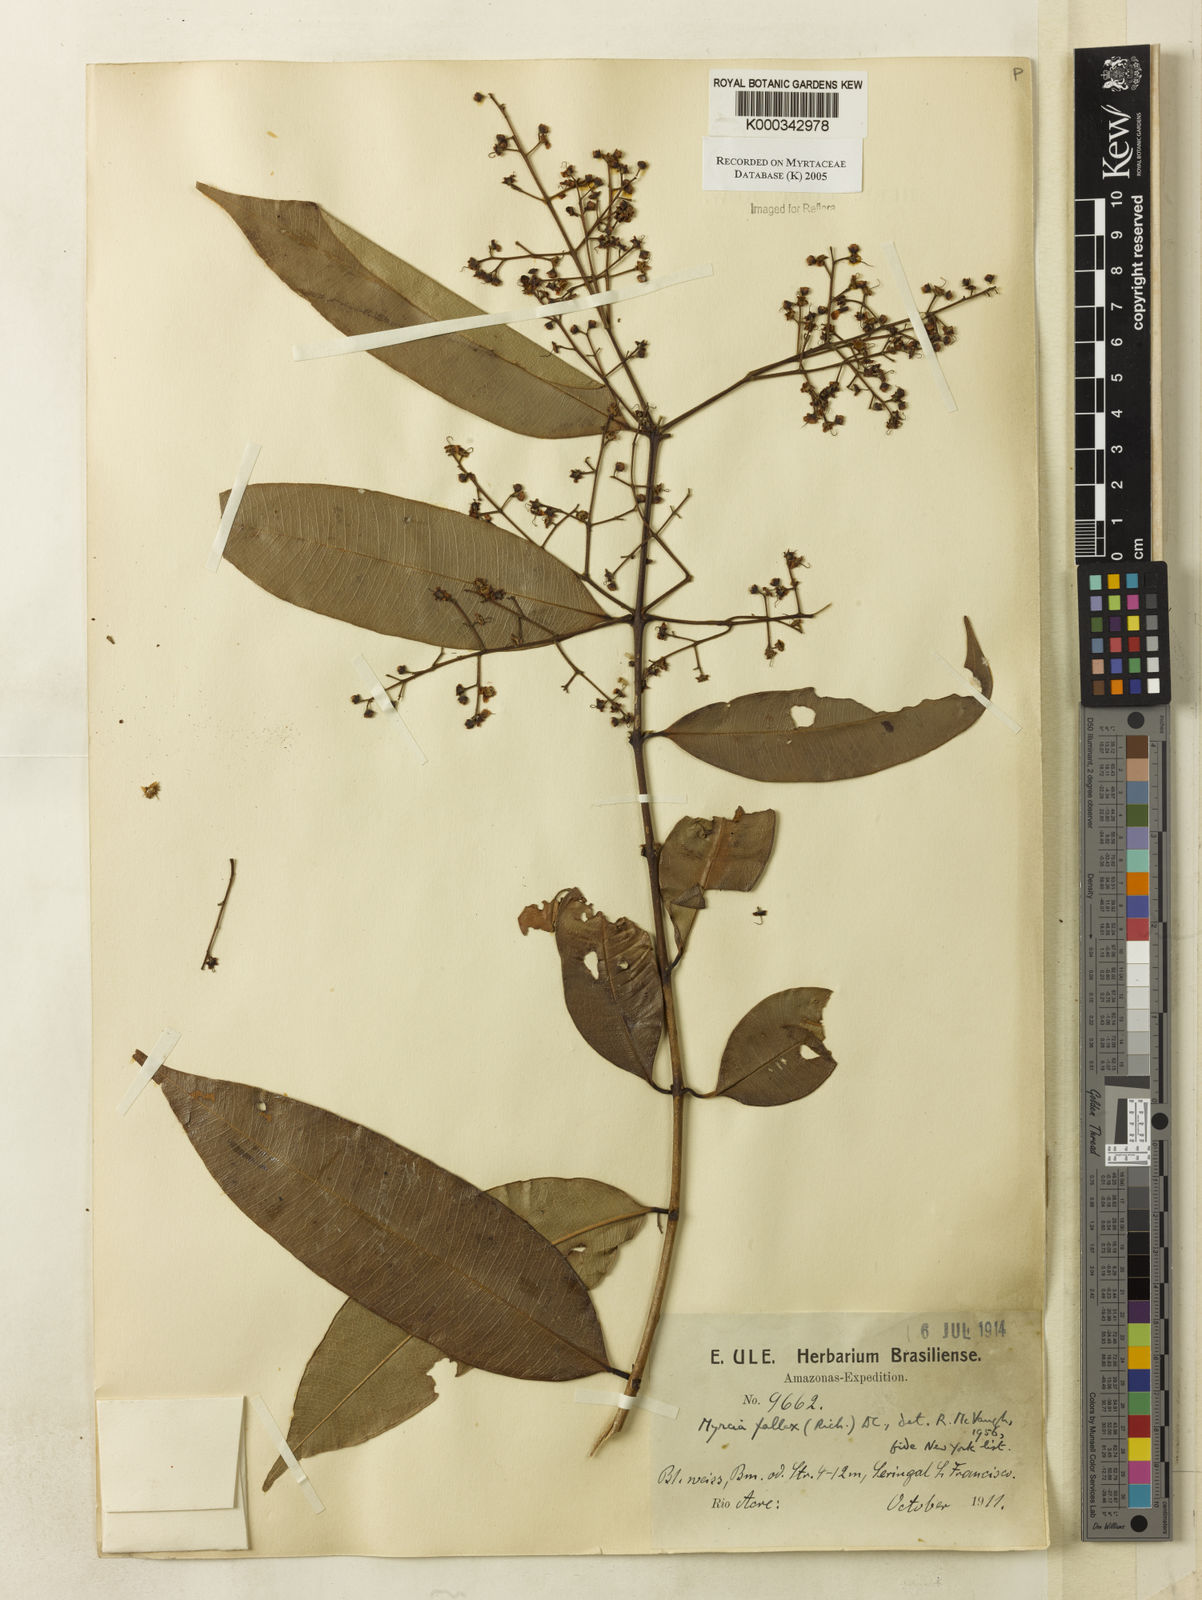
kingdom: Plantae
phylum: Tracheophyta
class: Magnoliopsida
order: Myrtales
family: Myrtaceae
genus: Myrcia
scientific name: Myrcia splendens
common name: Surinam cherry
